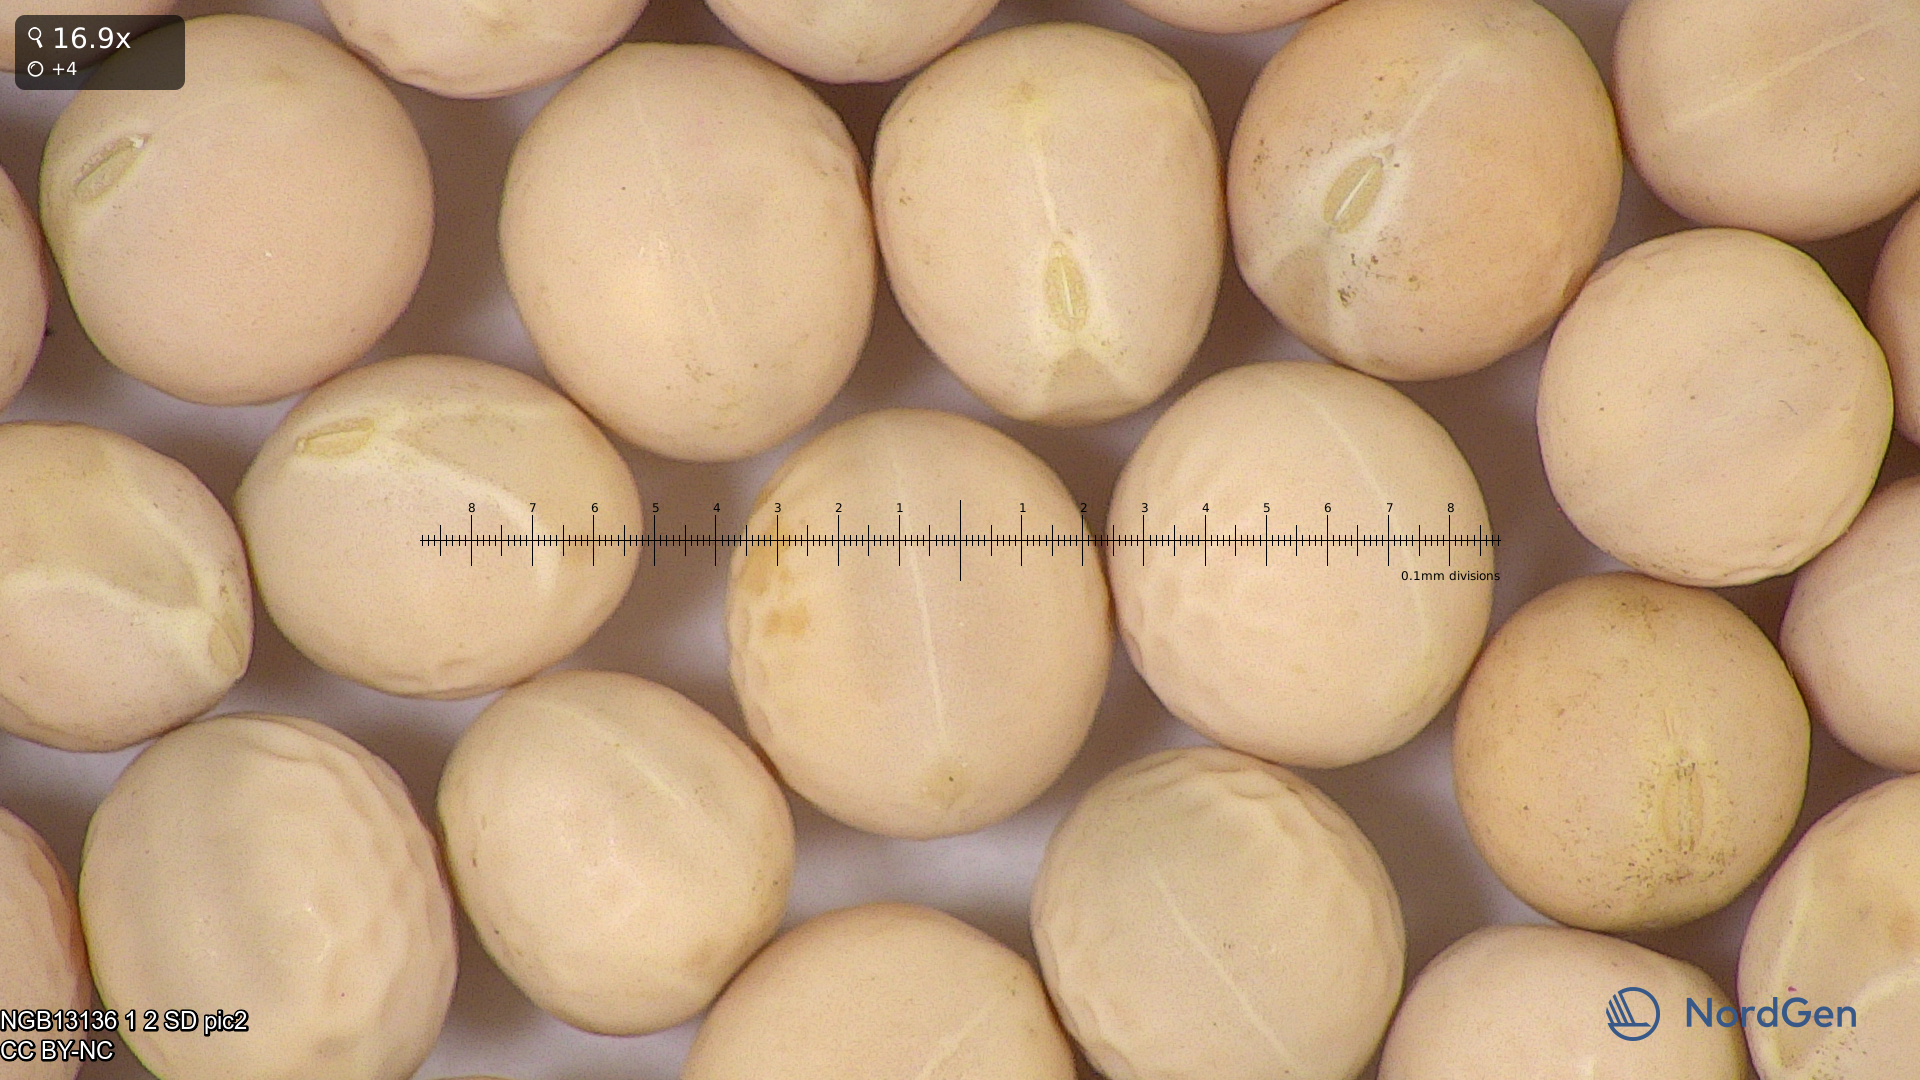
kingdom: Plantae
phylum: Tracheophyta
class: Magnoliopsida
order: Fabales
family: Fabaceae
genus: Lathyrus
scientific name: Lathyrus oleraceus
